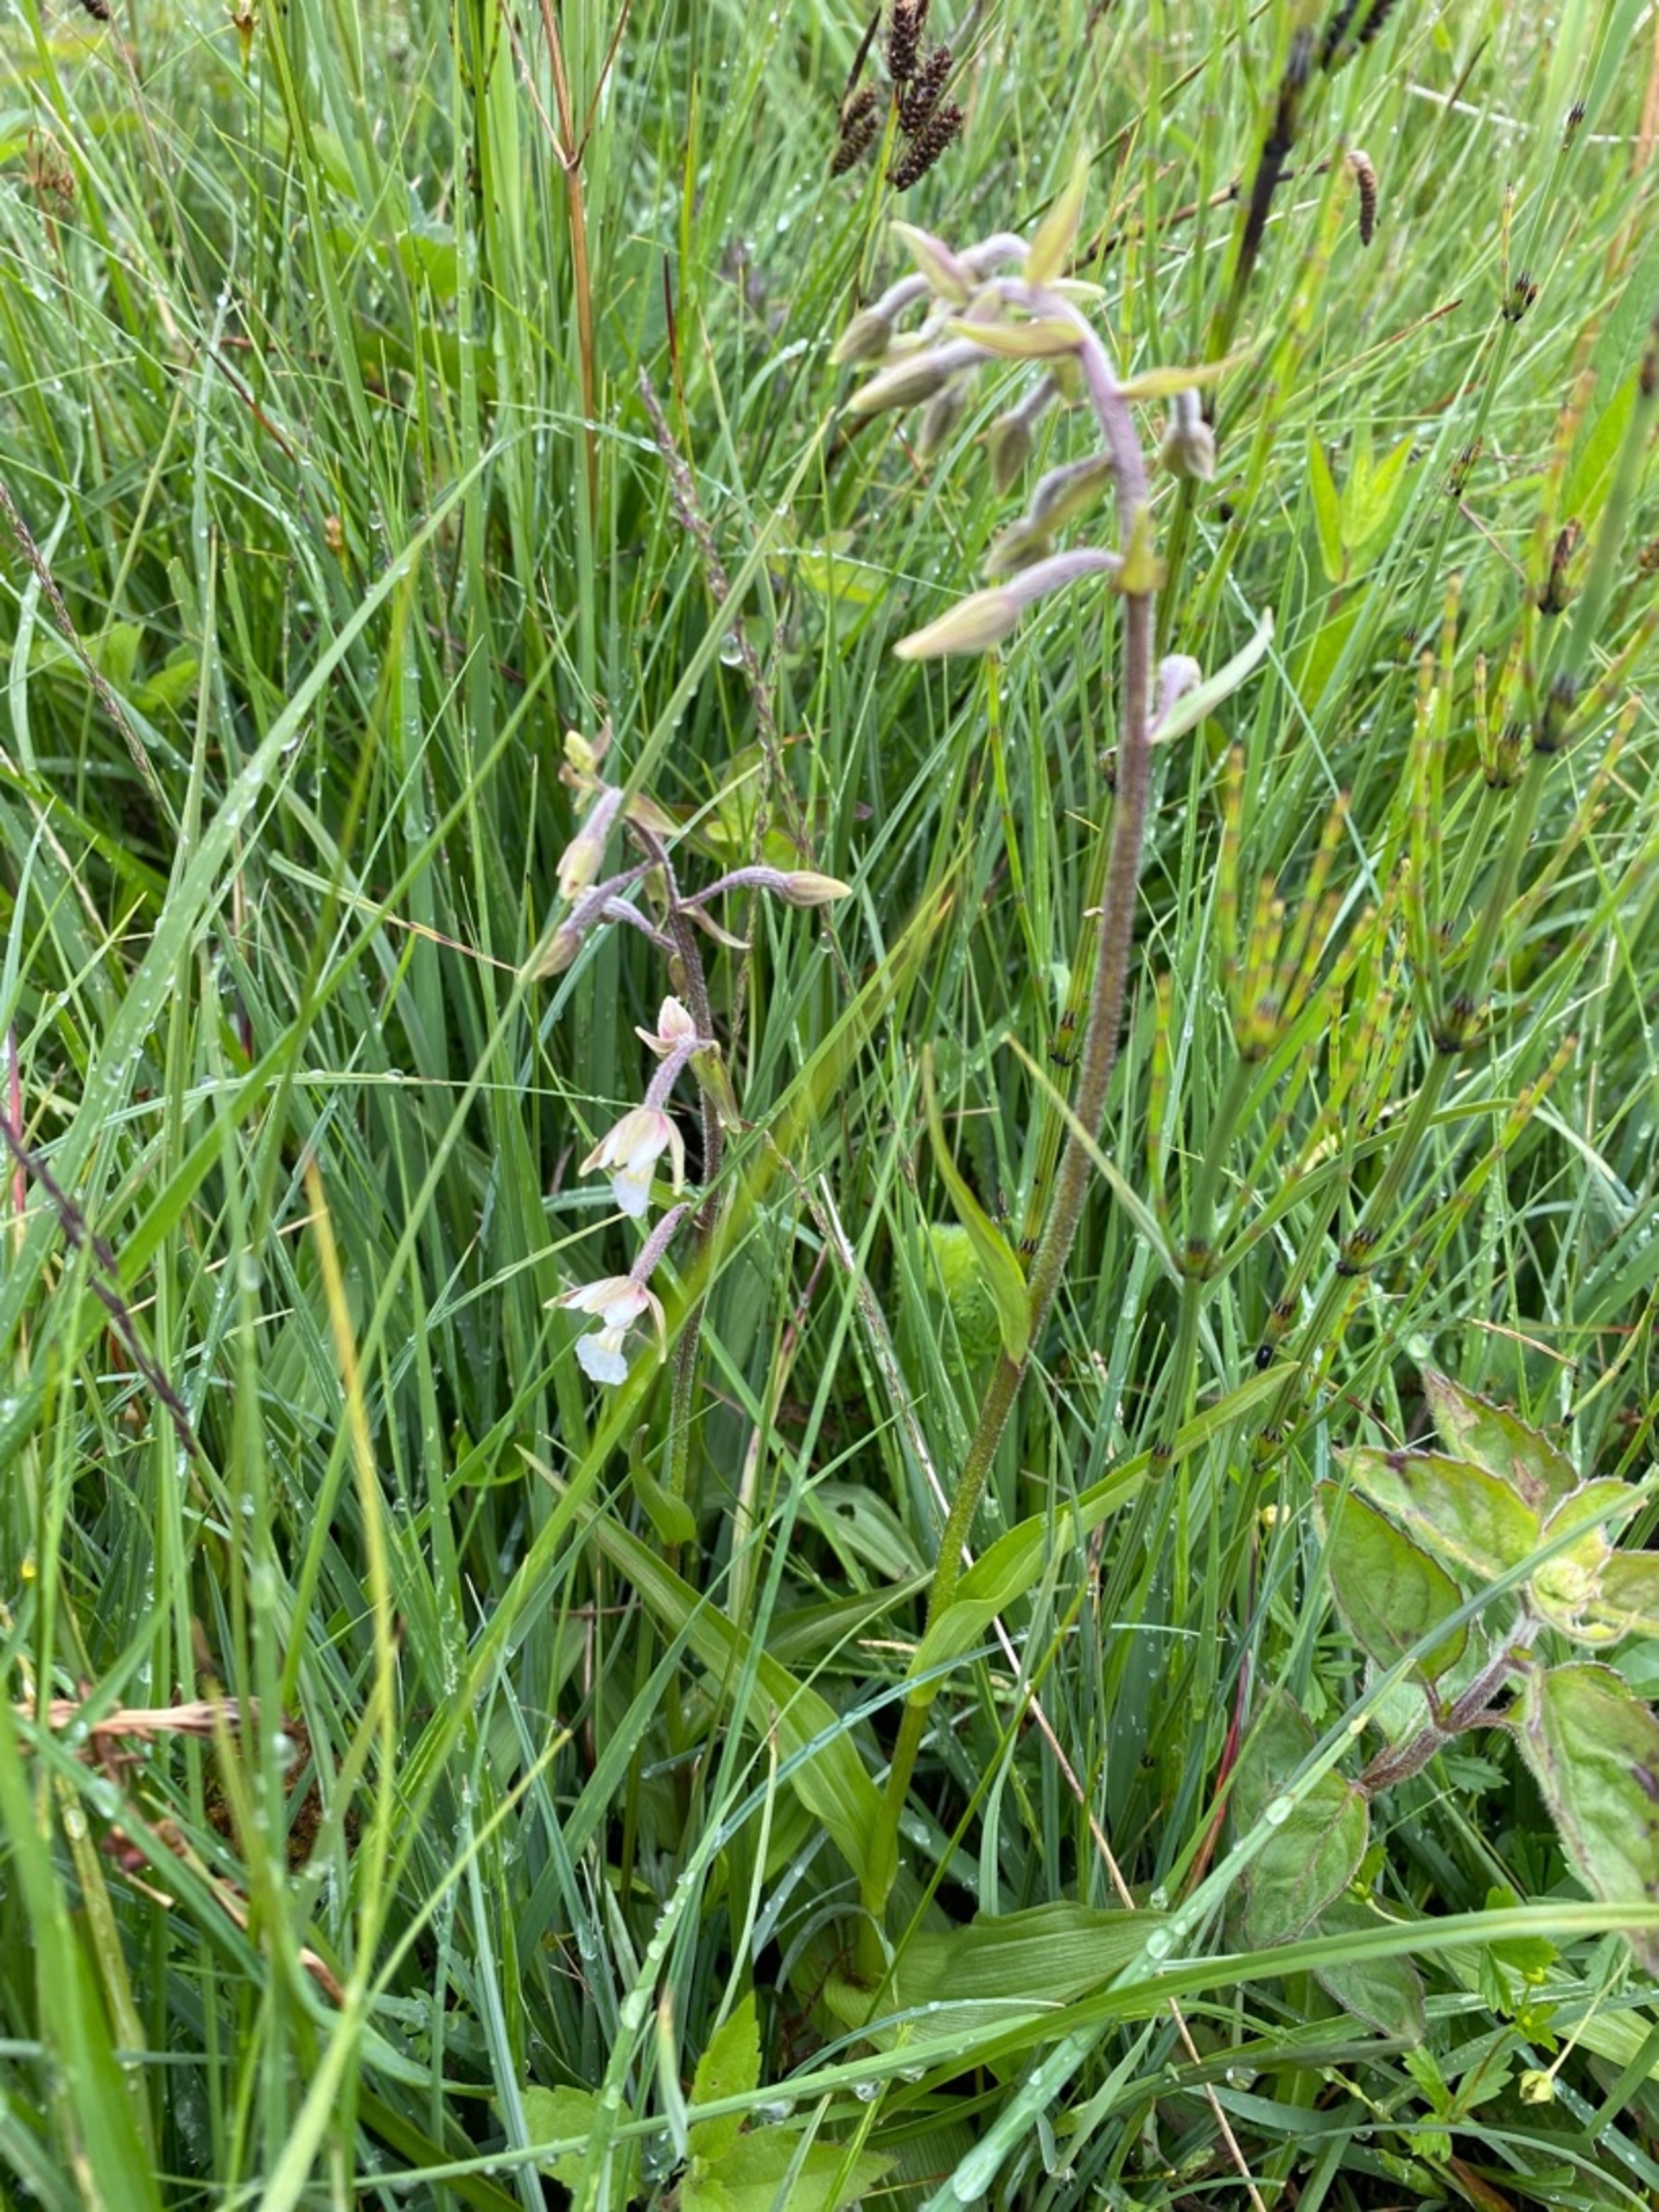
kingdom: Plantae
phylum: Tracheophyta
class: Liliopsida
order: Asparagales
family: Orchidaceae
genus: Epipactis
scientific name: Epipactis palustris
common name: Sump-hullæbe
